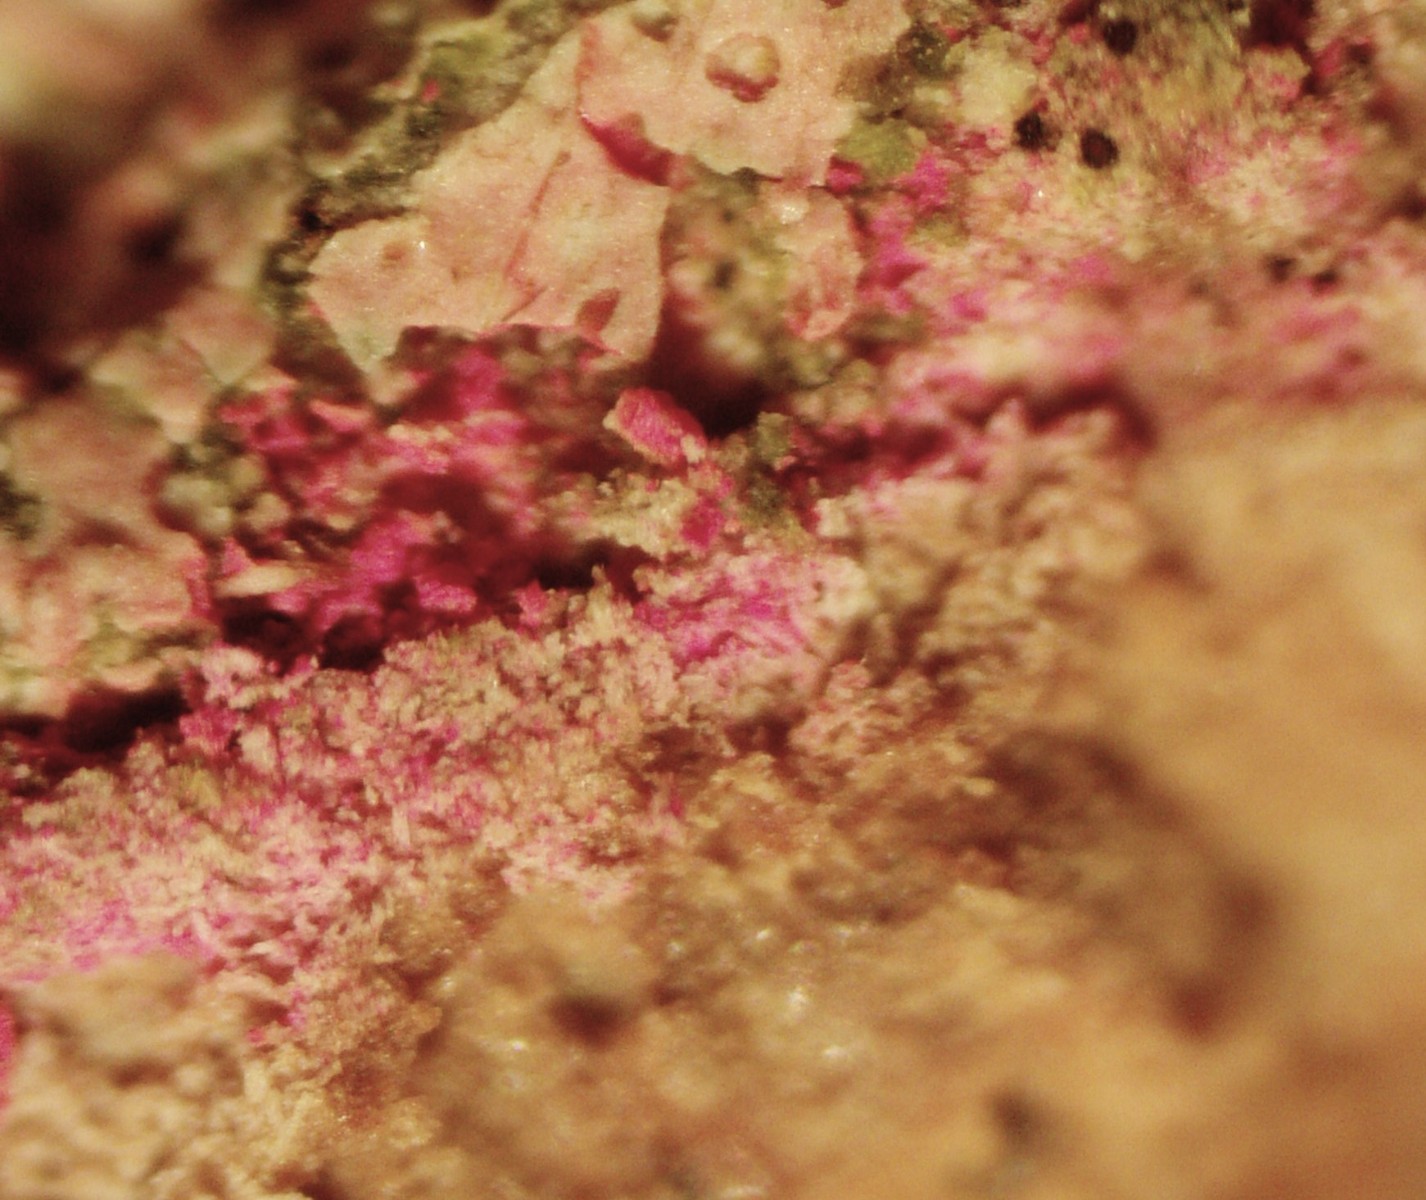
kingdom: Fungi
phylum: Ascomycota
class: Sordariomycetes
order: Hypocreales
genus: Illosporiopsis
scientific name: Illosporiopsis christiansenii
